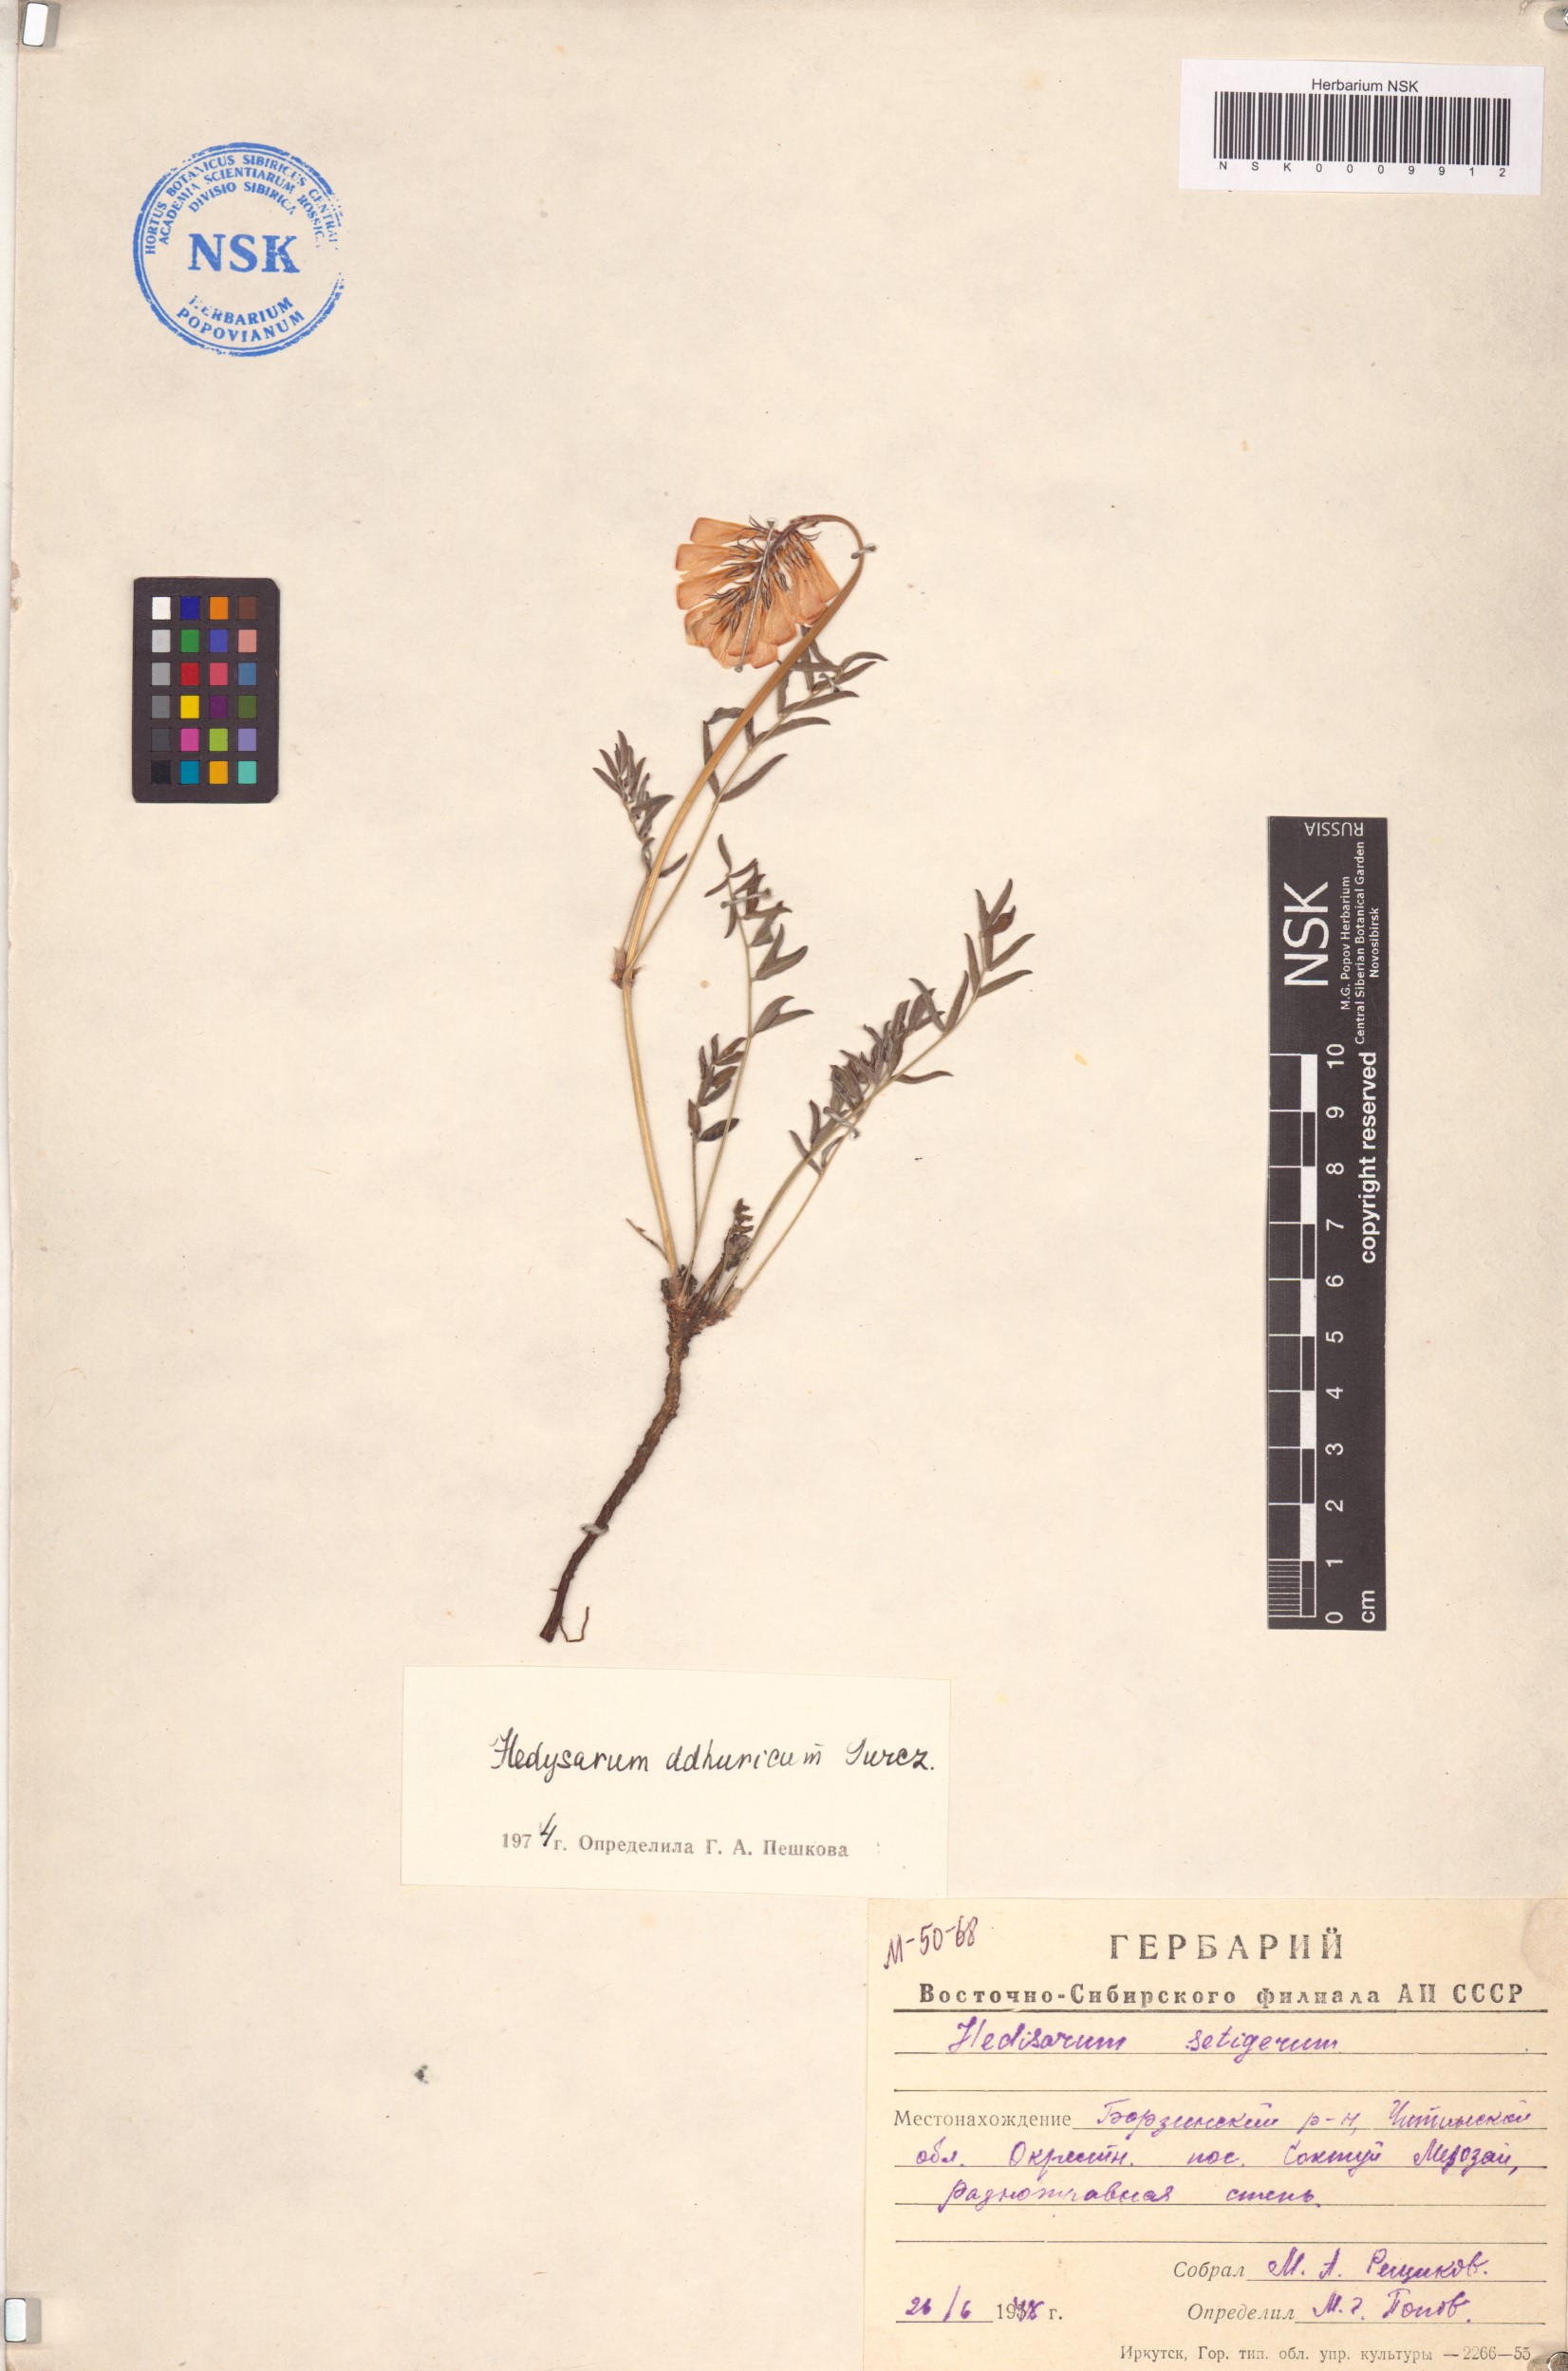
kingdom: Plantae
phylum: Tracheophyta
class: Magnoliopsida
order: Fabales
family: Fabaceae
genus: Hedysarum
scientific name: Hedysarum dahuricum
